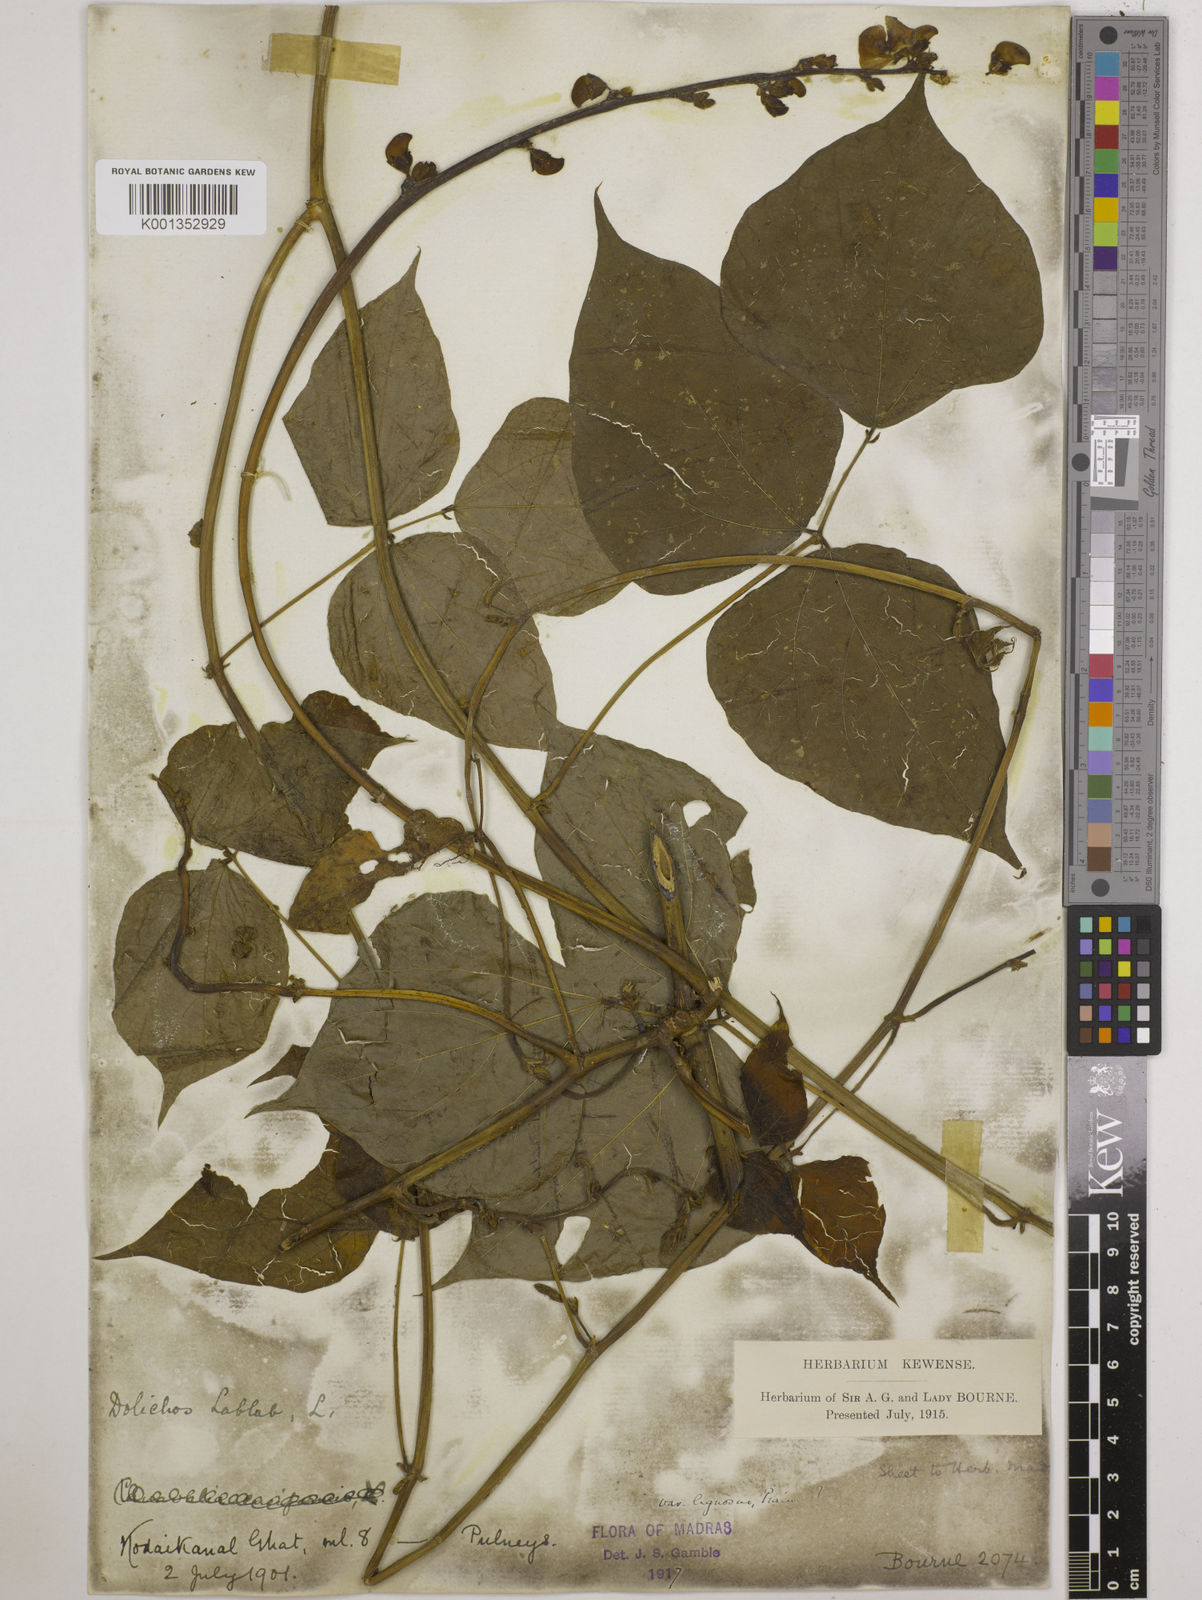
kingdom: Plantae
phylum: Tracheophyta
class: Magnoliopsida
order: Fabales
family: Fabaceae
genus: Lablab
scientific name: Lablab purpureus
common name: Lablab-bean
